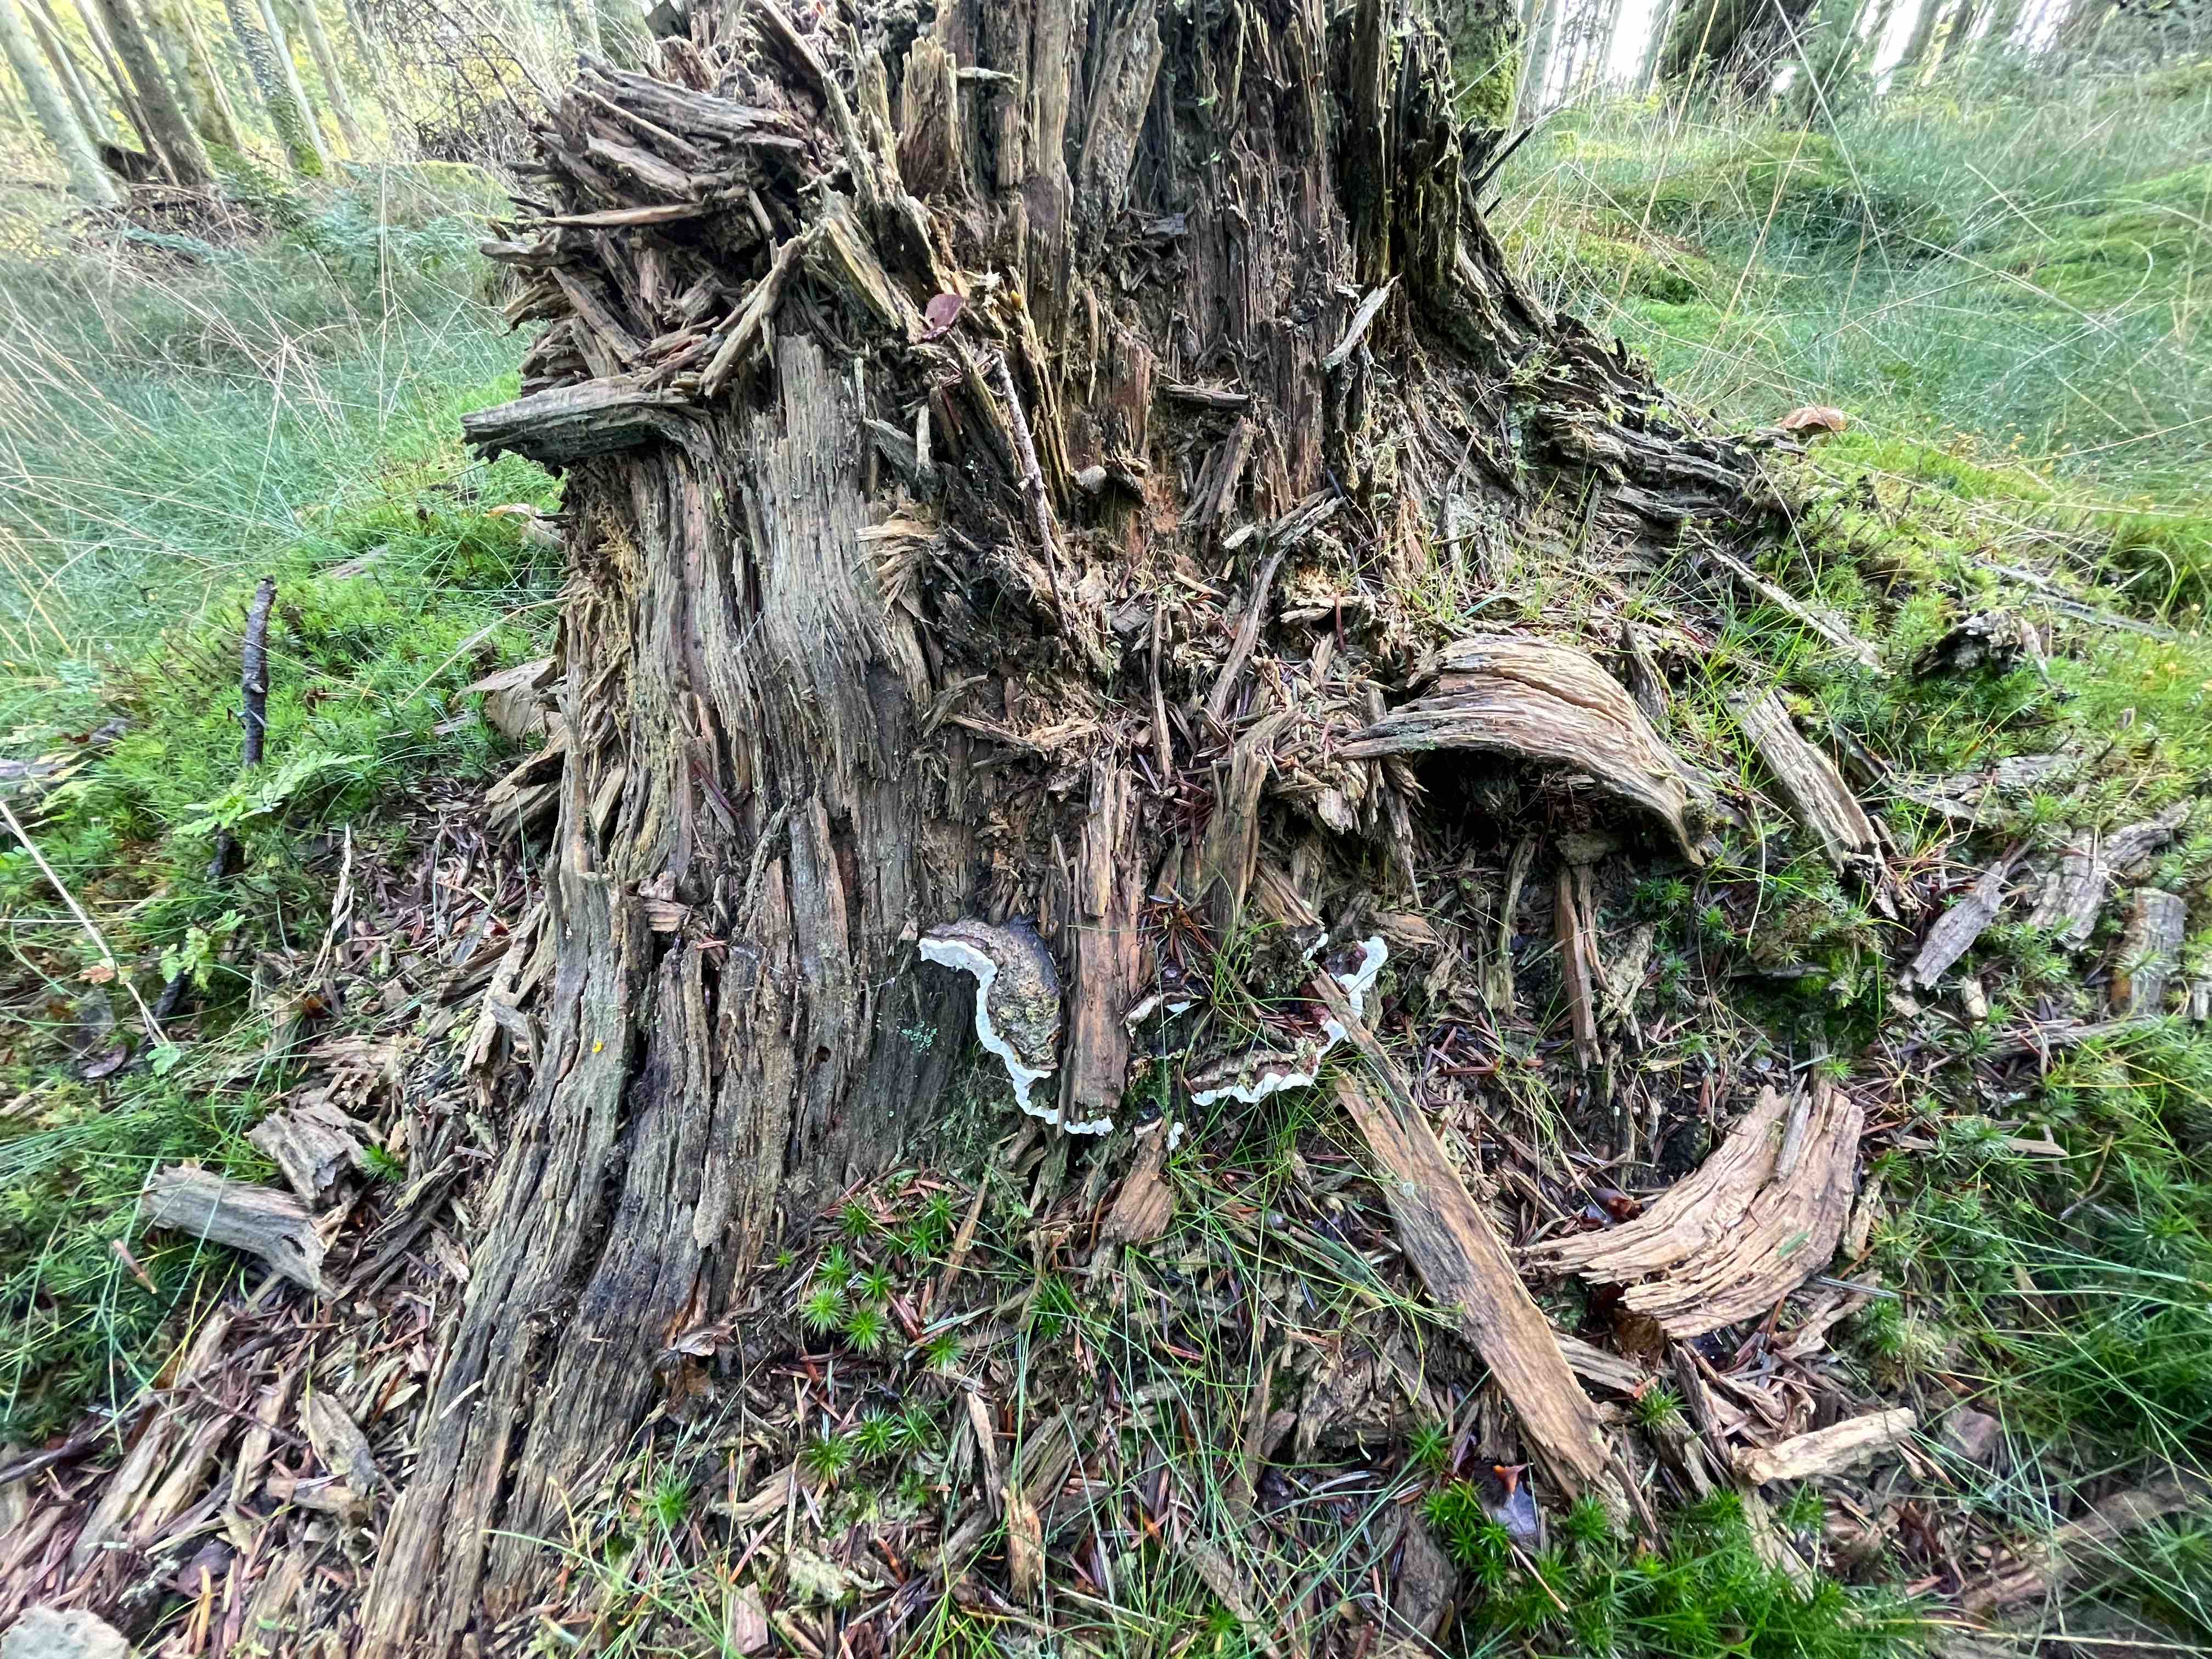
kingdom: Fungi
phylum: Basidiomycota
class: Agaricomycetes
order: Russulales
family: Bondarzewiaceae
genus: Heterobasidion
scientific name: Heterobasidion annosum
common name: almindelig rodfordærver
